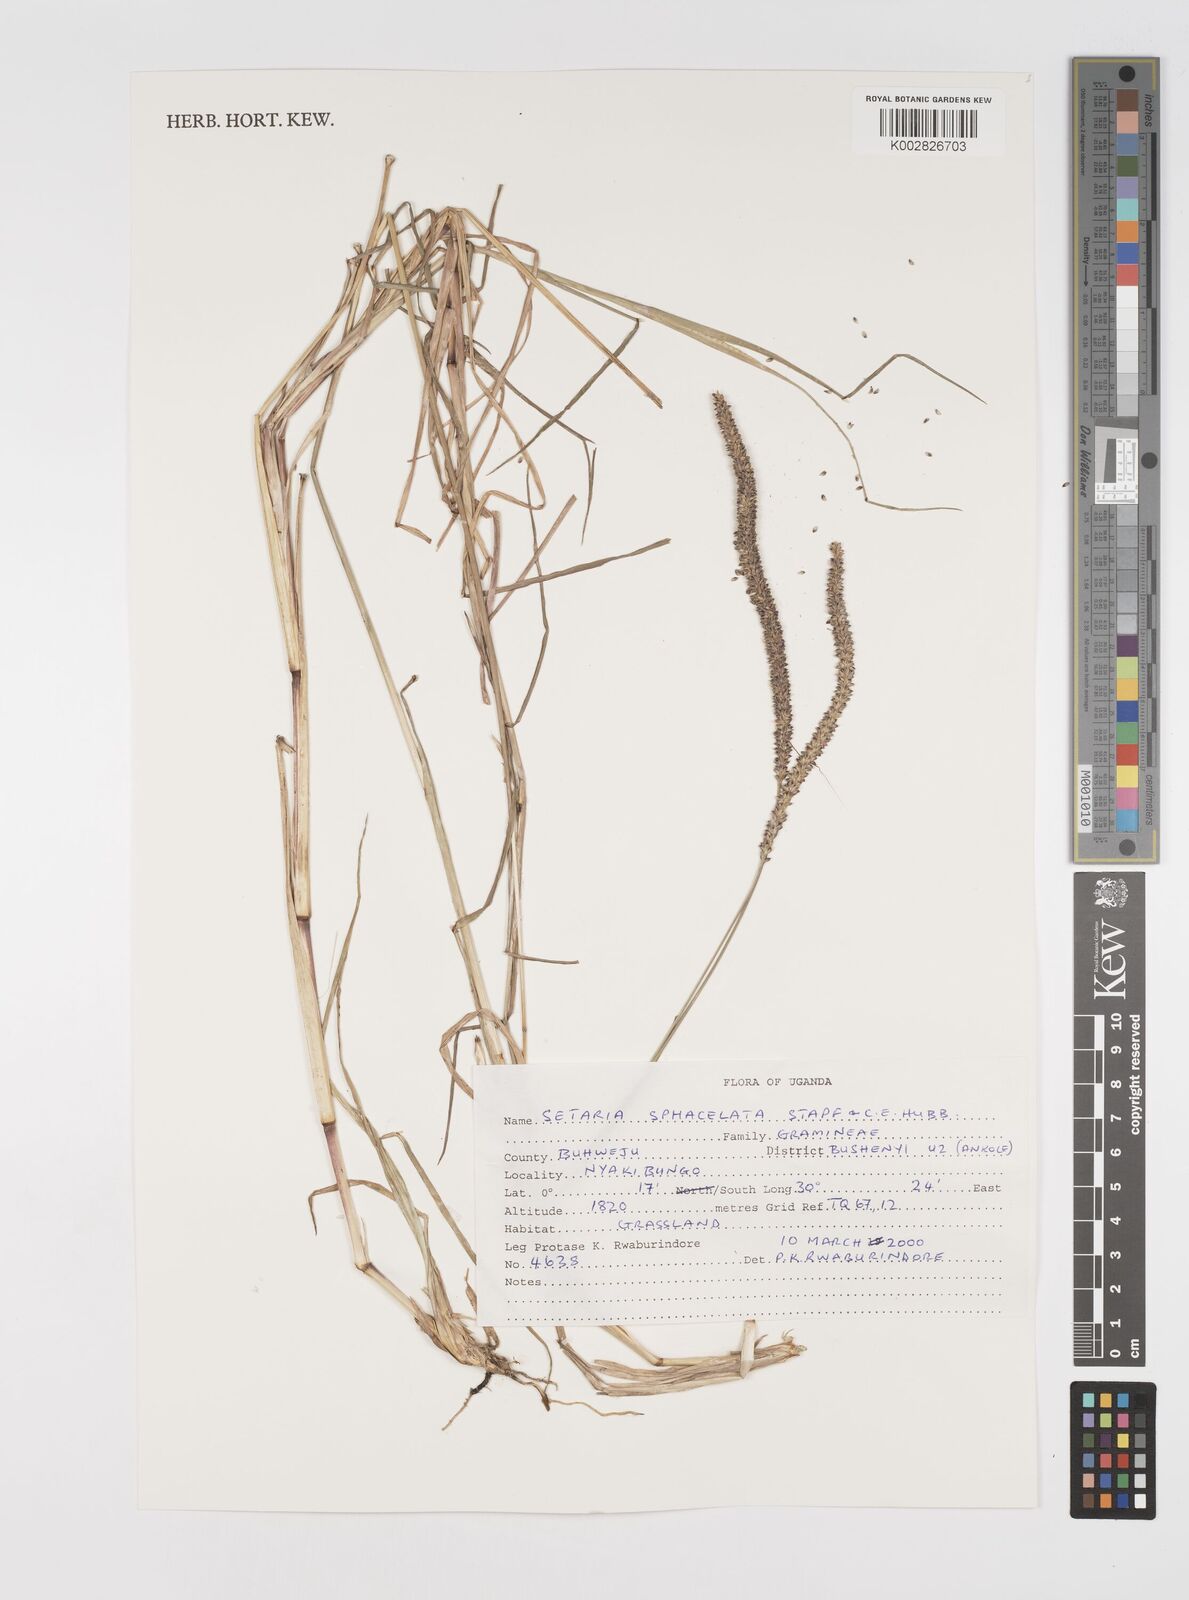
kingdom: Plantae
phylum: Tracheophyta
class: Liliopsida
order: Poales
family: Poaceae
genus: Setaria
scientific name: Setaria sphacelata
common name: African bristlegrass
